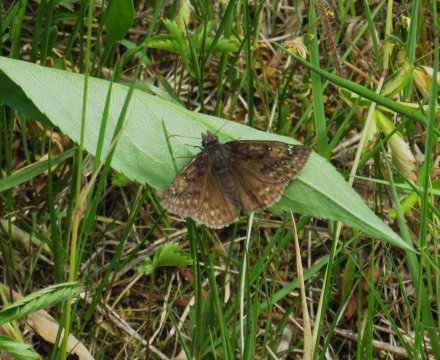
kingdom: Animalia
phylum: Arthropoda
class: Insecta
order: Lepidoptera
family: Hesperiidae
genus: Gesta
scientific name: Gesta
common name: Juvenal's Duskywing
